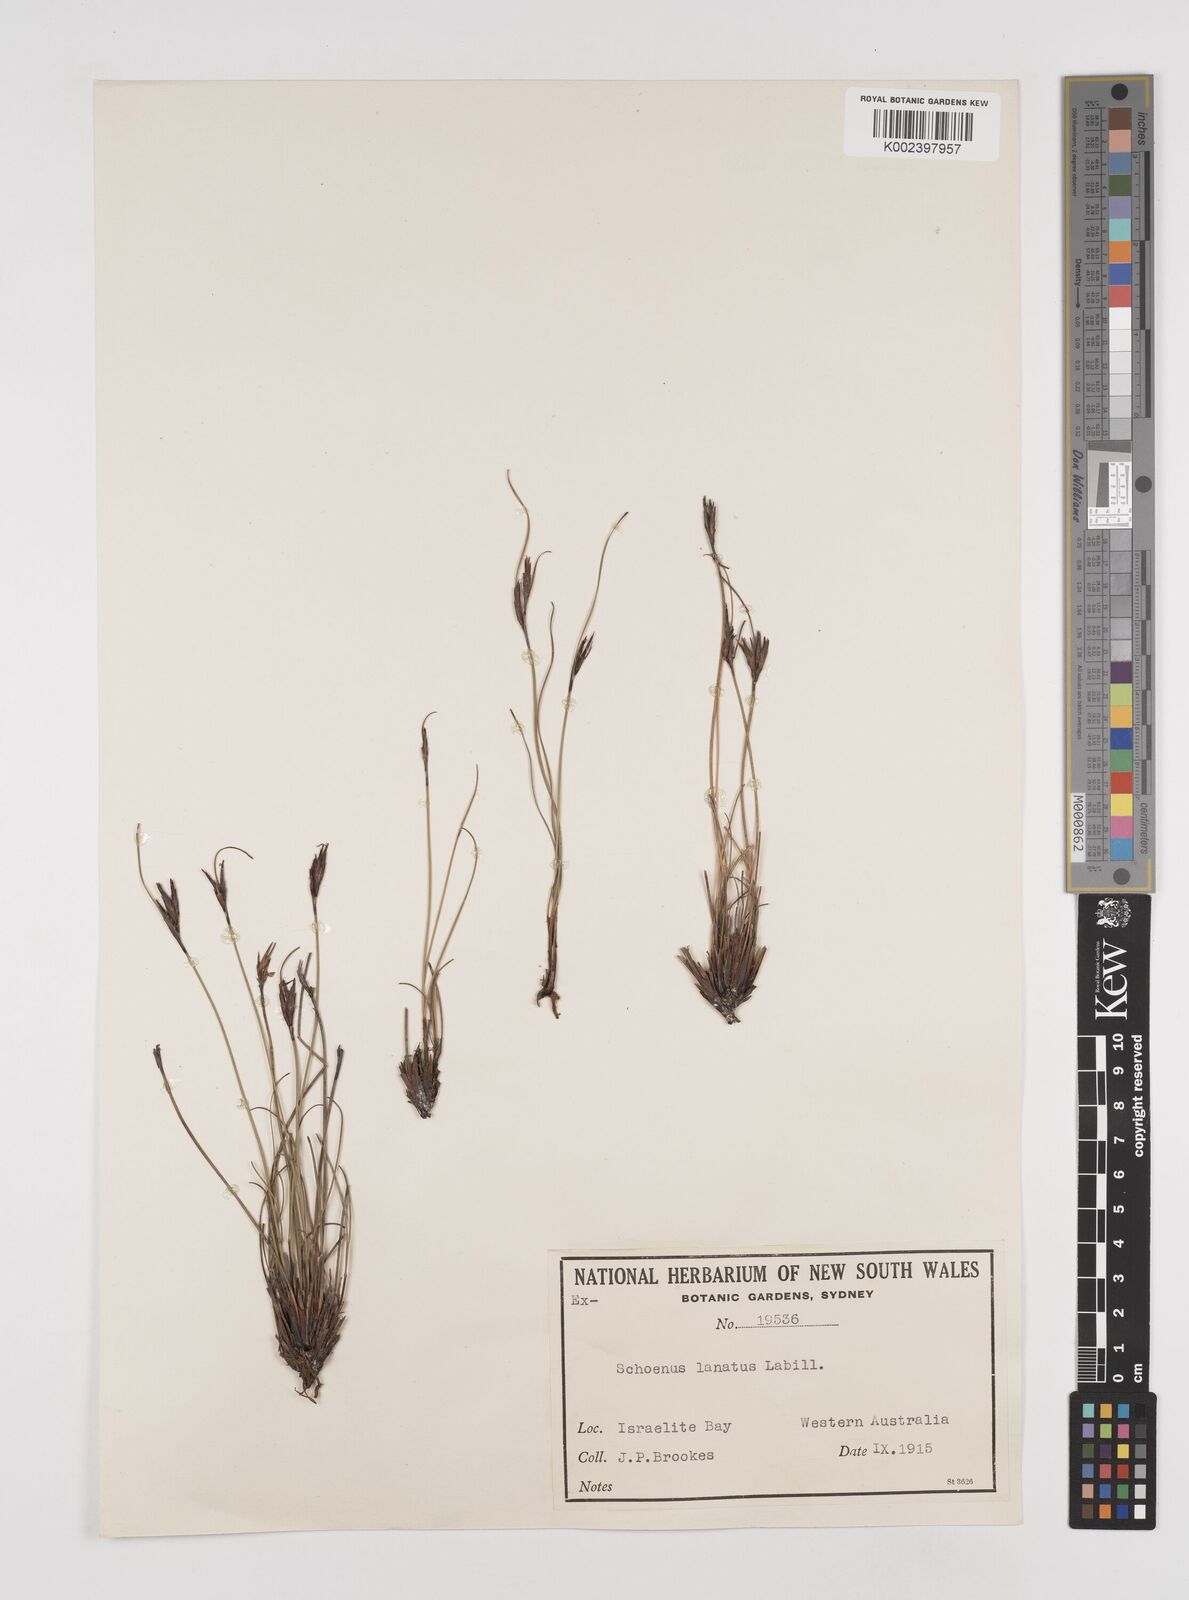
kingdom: Plantae
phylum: Tracheophyta
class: Liliopsida
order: Poales
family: Cyperaceae
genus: Schoenus
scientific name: Schoenus lanatus
